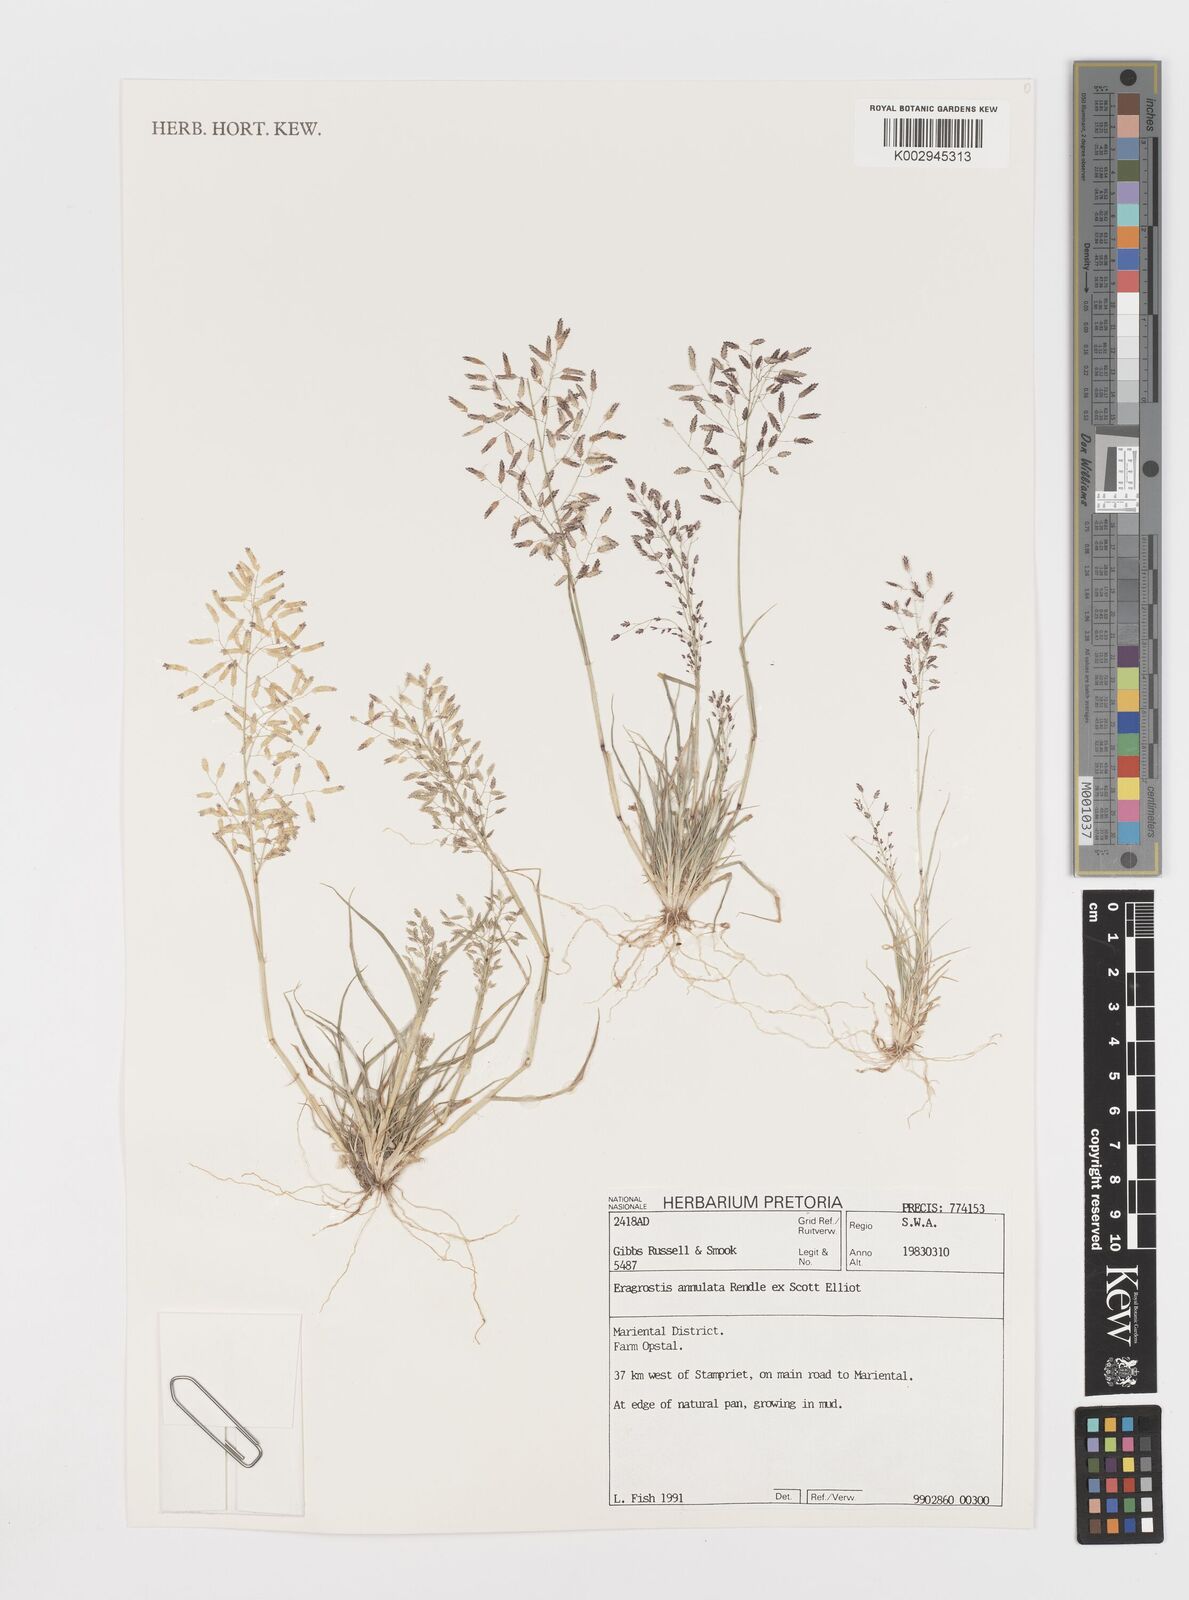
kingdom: Plantae
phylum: Tracheophyta
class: Liliopsida
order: Poales
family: Poaceae
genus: Eragrostis
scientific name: Eragrostis annulata
